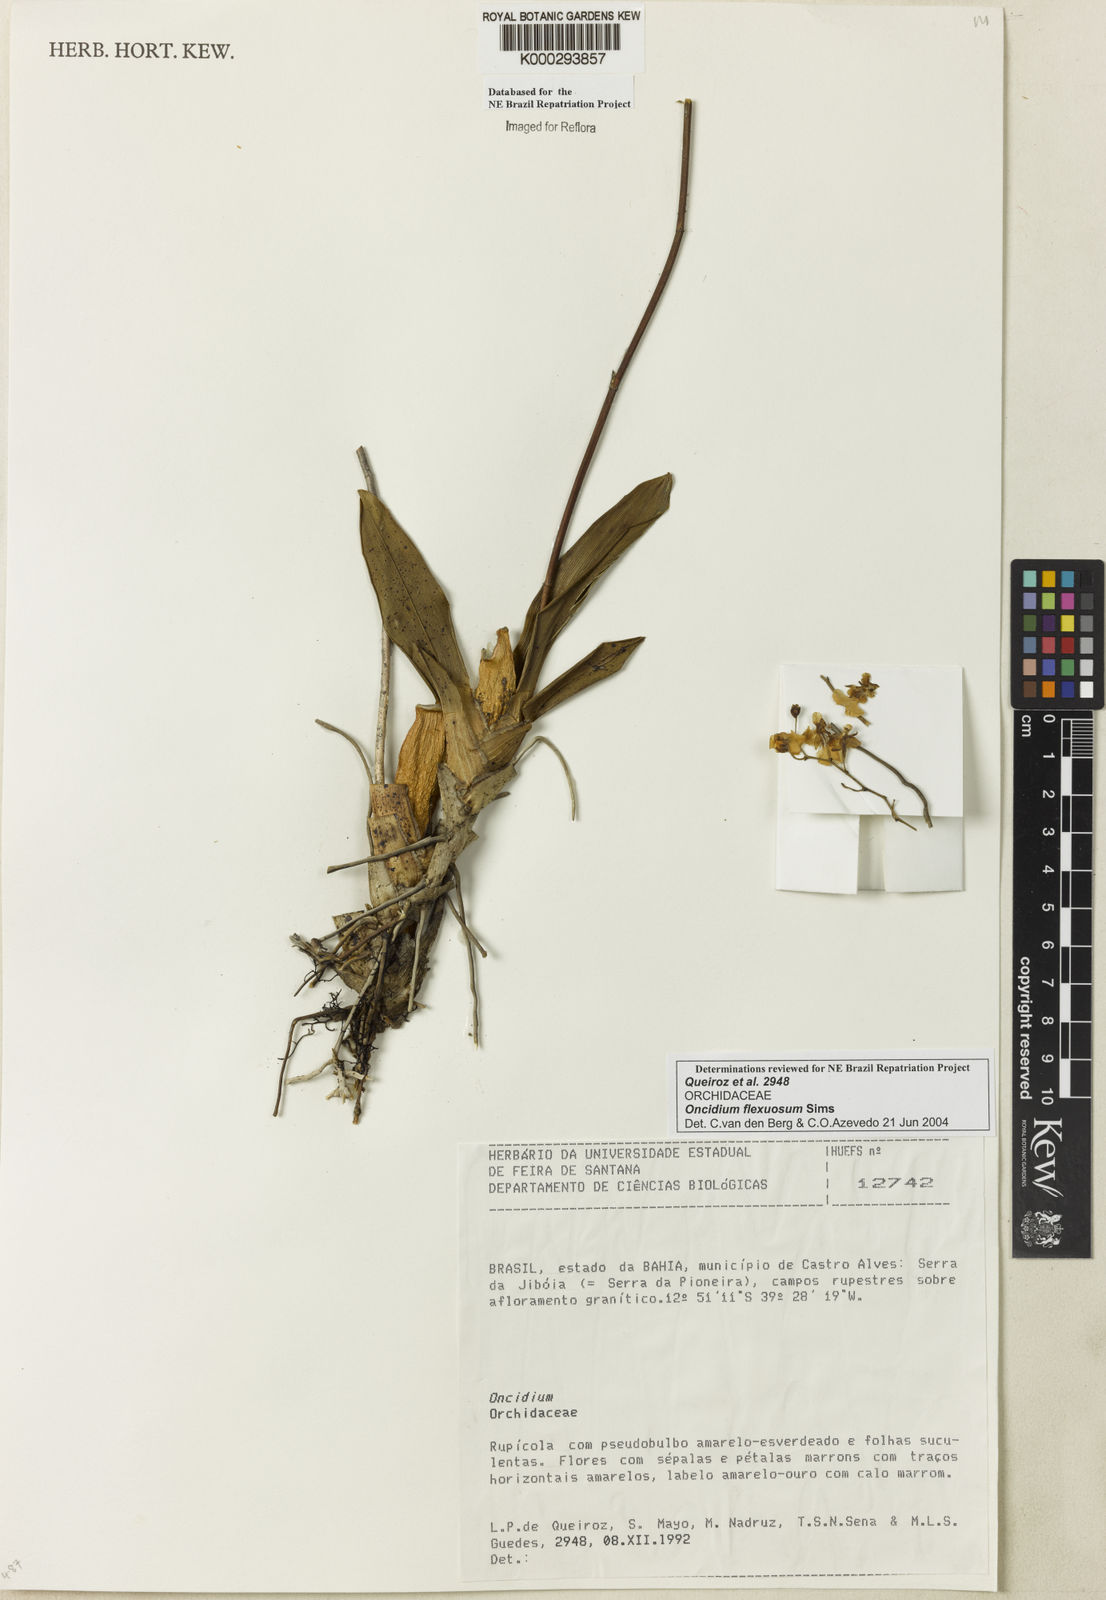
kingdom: Plantae
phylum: Tracheophyta
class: Liliopsida
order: Asparagales
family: Orchidaceae
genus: Gomesa
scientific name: Gomesa flexuosa
